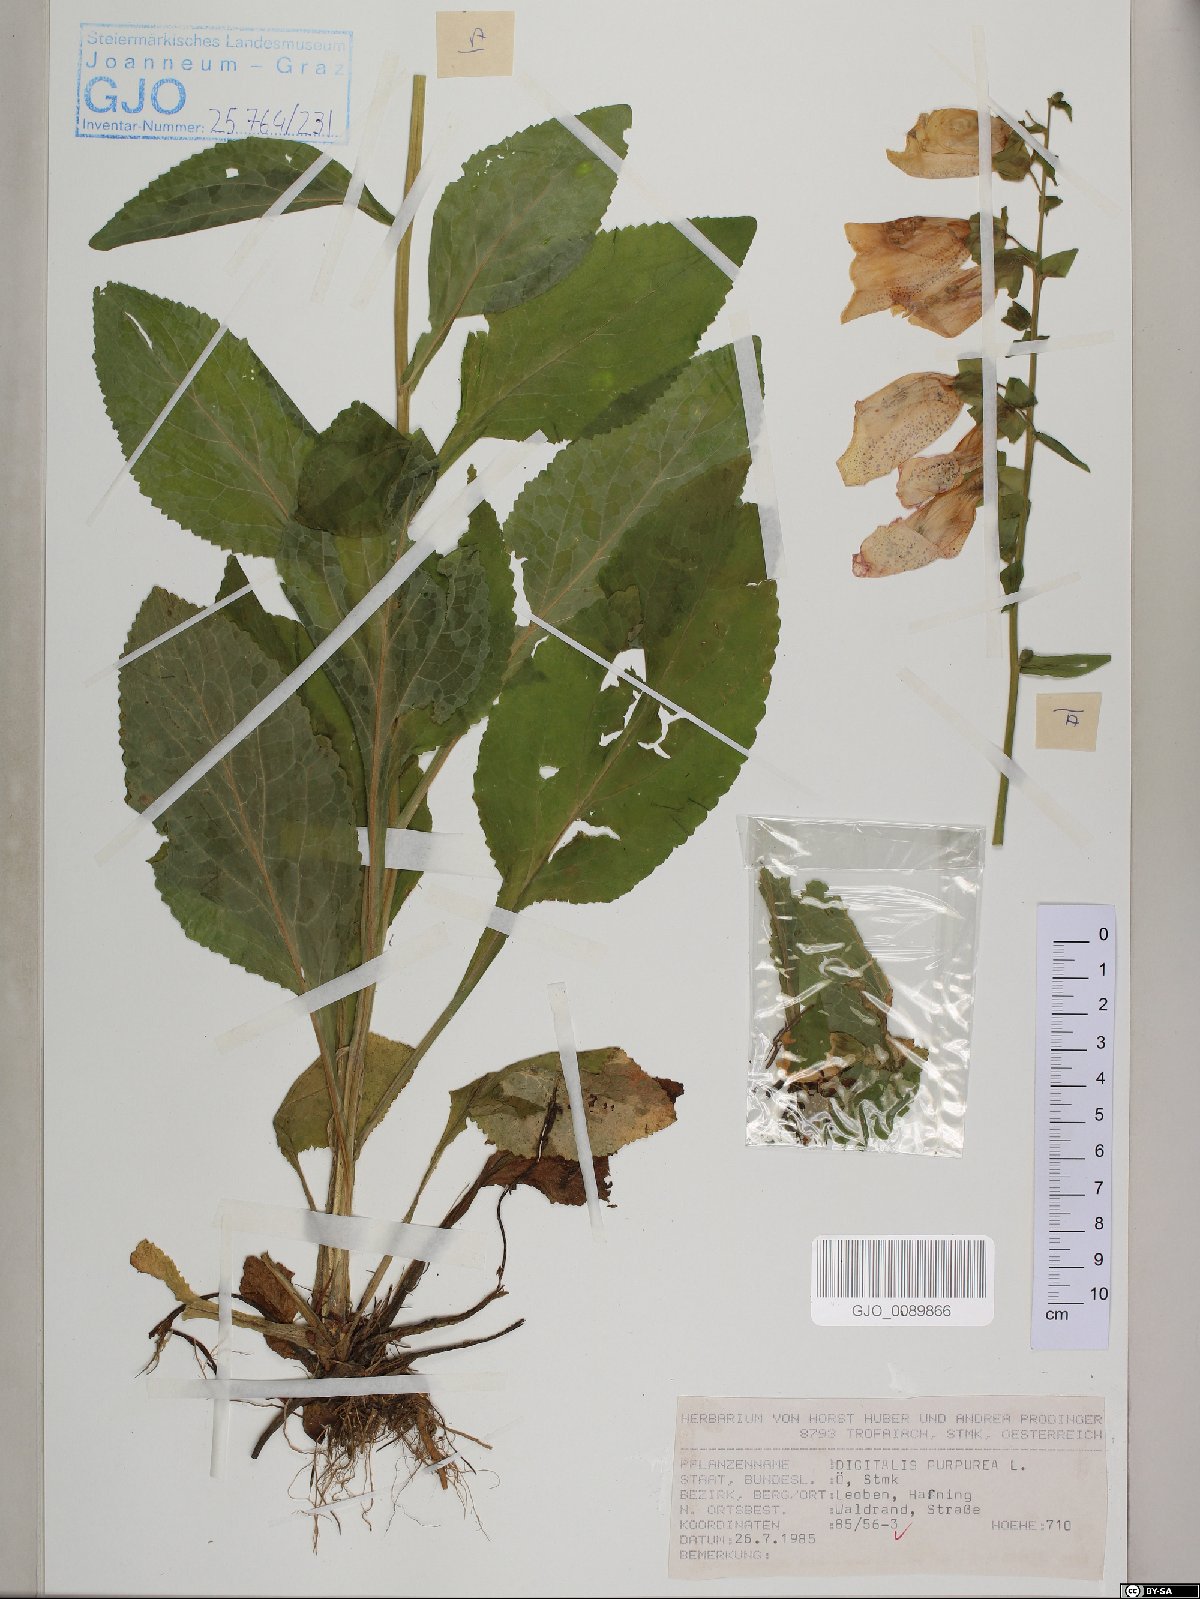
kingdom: Plantae
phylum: Tracheophyta
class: Magnoliopsida
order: Lamiales
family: Plantaginaceae
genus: Digitalis
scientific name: Digitalis purpurea
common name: Foxglove
